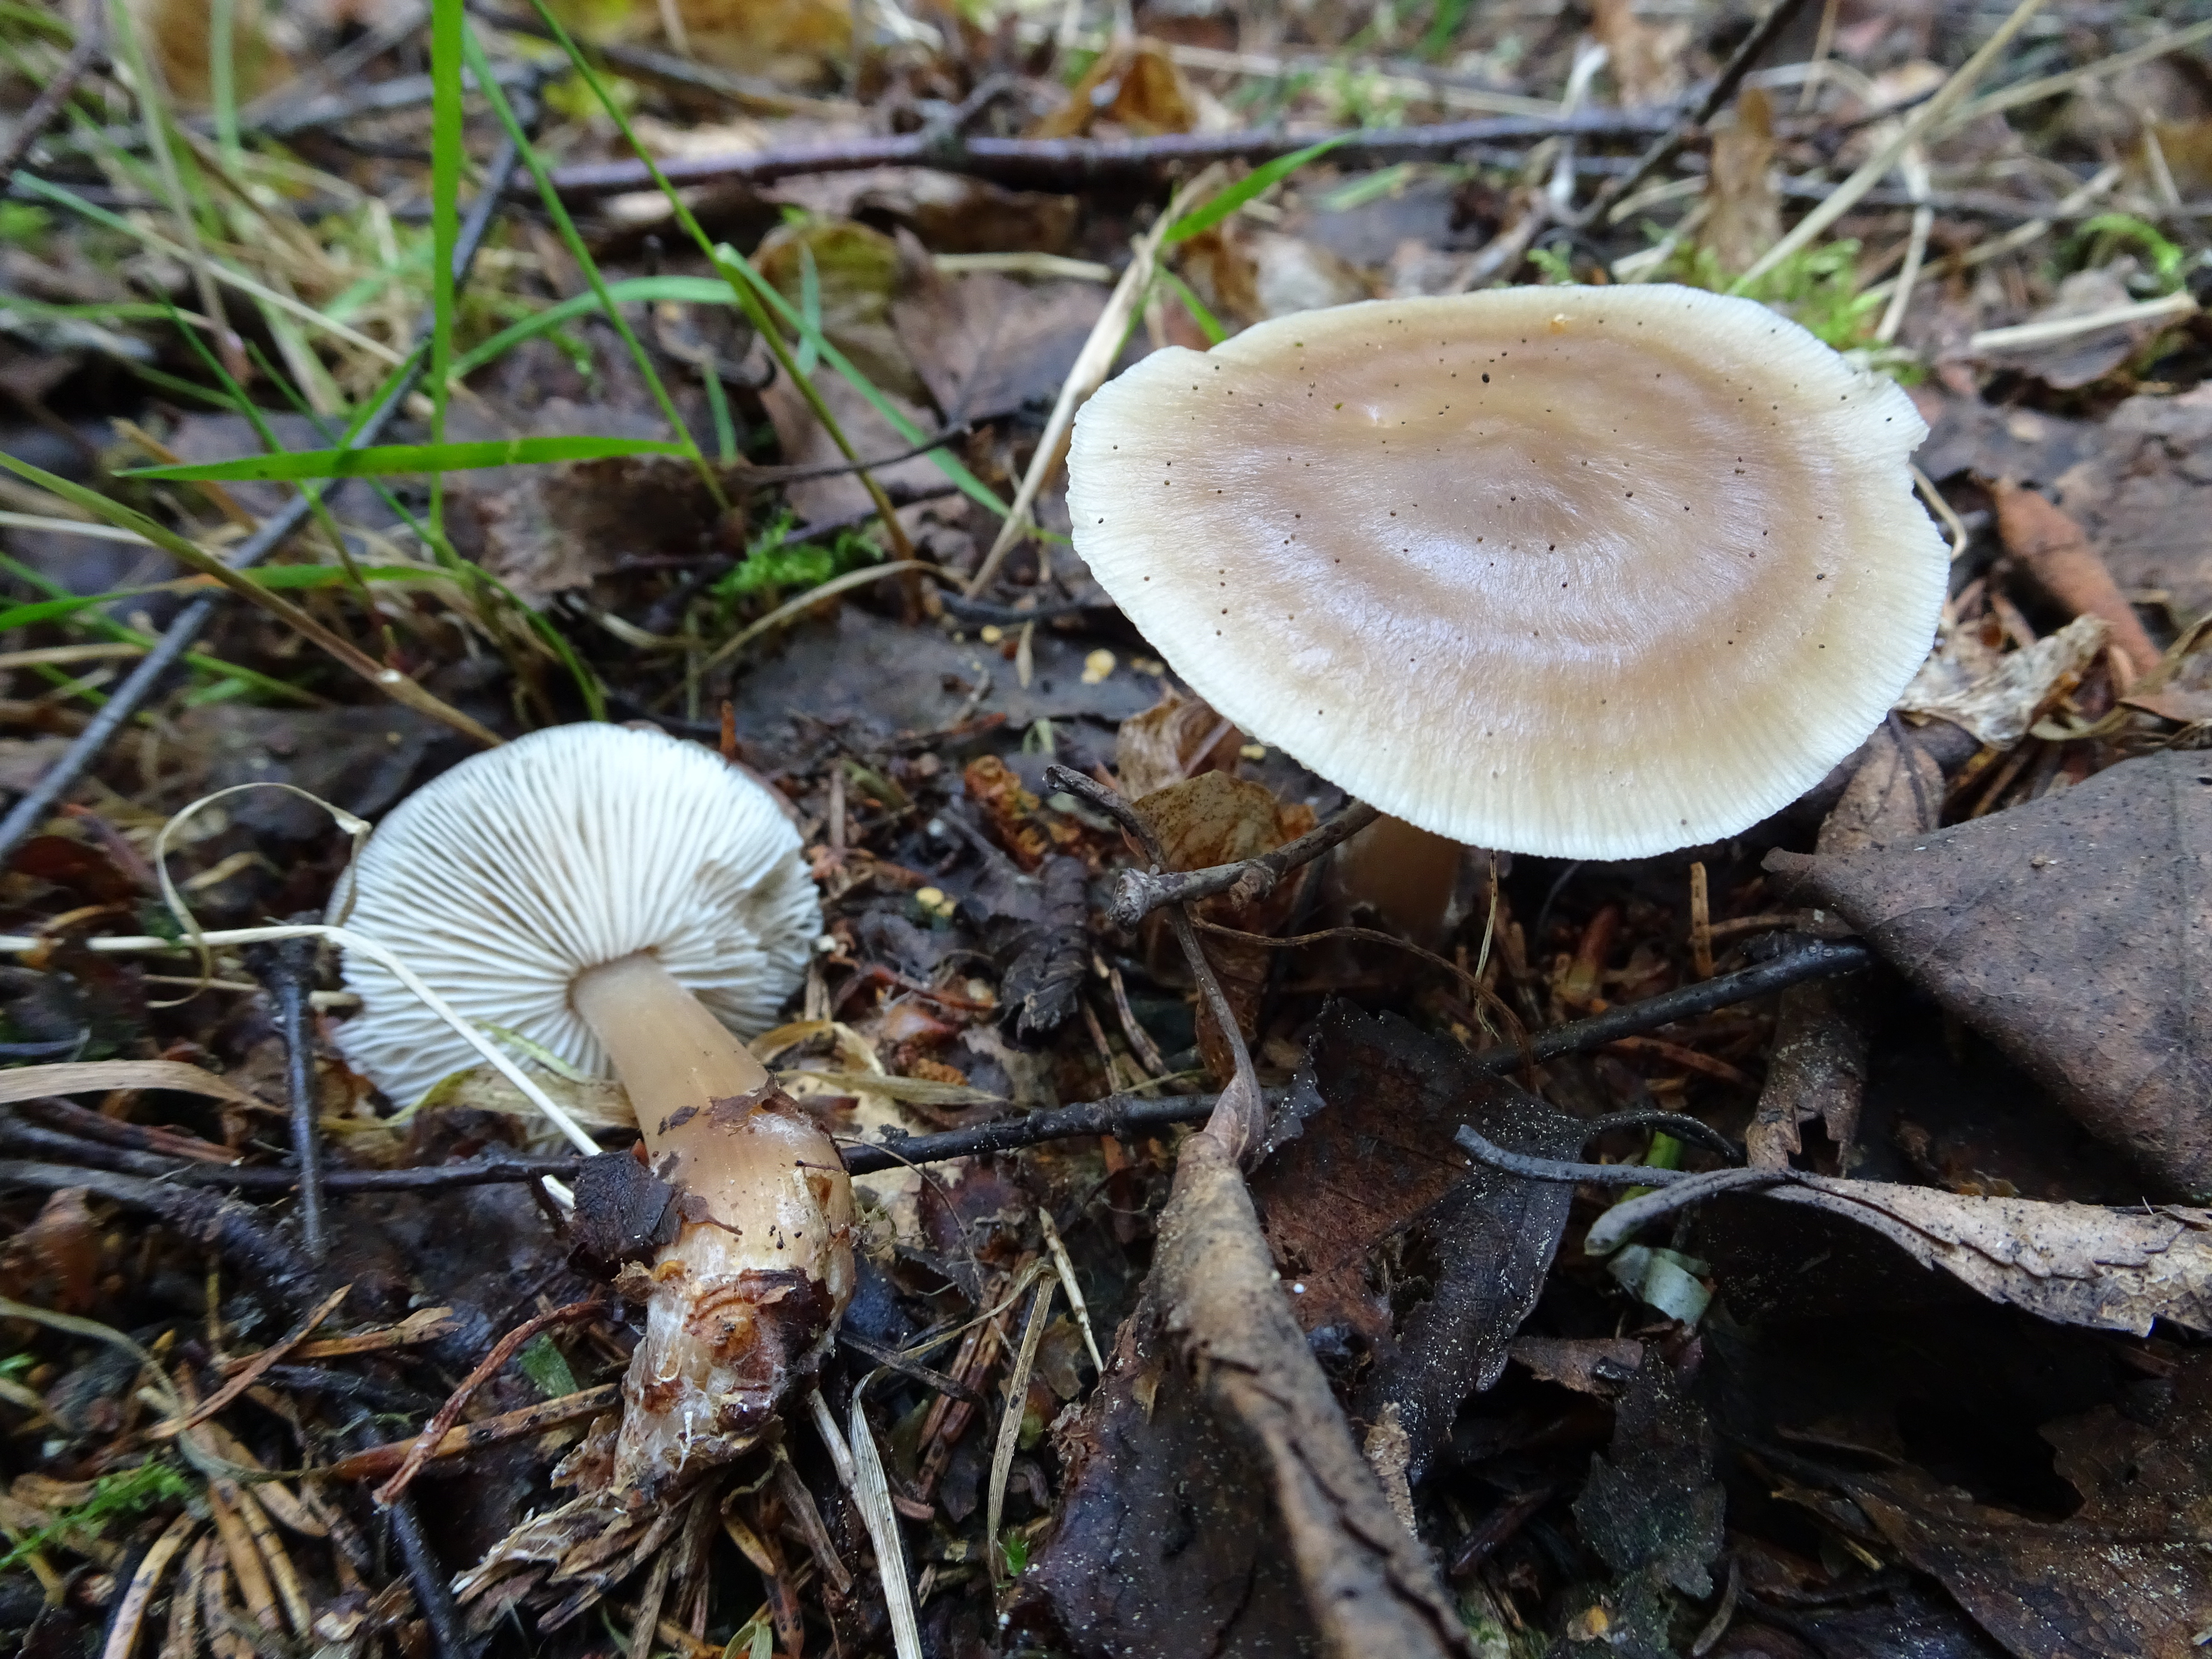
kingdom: Fungi
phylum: Basidiomycota
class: Agaricomycetes
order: Agaricales
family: Omphalotaceae
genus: Rhodocollybia
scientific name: Rhodocollybia asema
